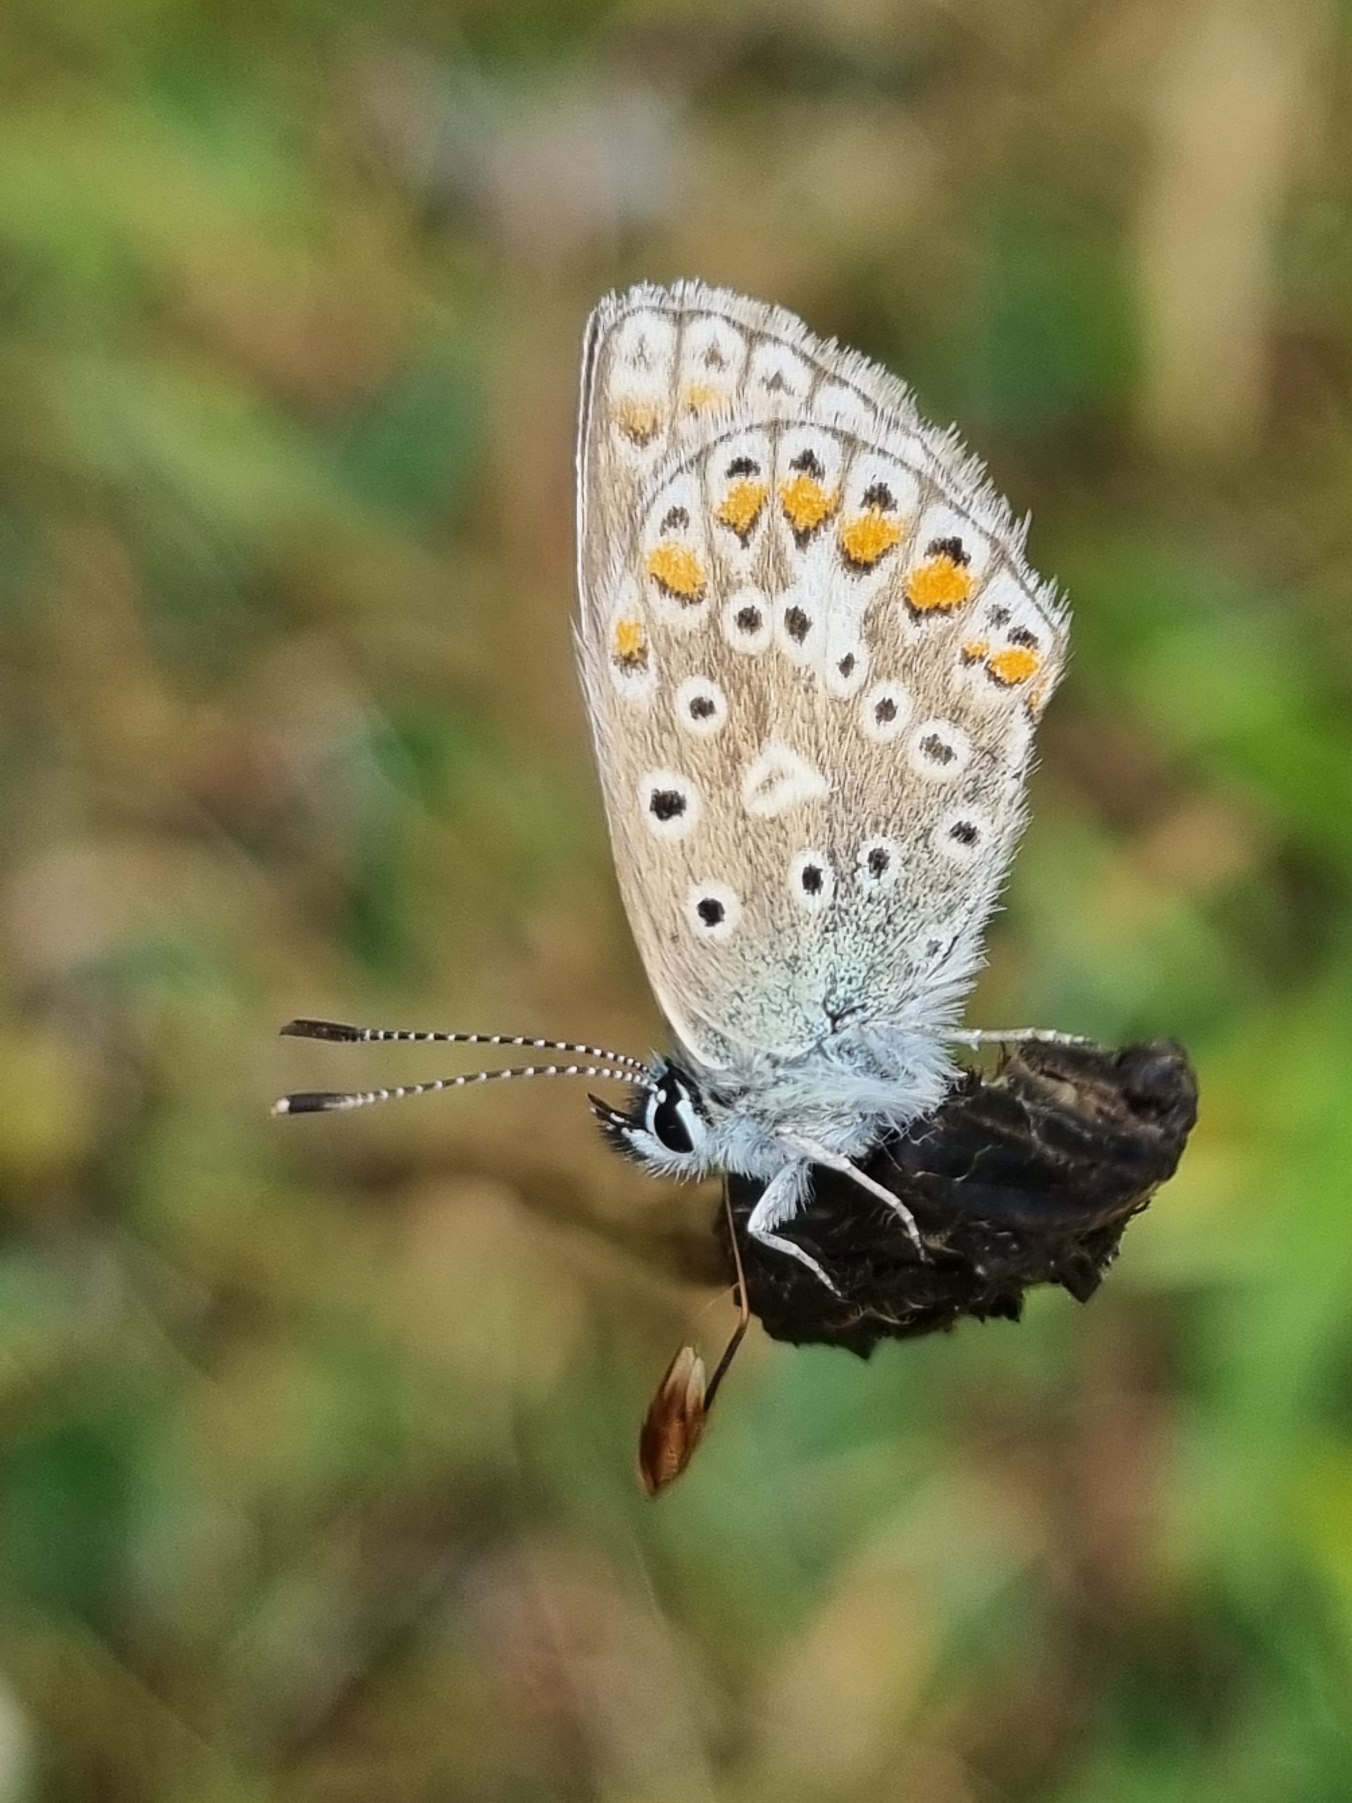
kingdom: Animalia
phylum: Arthropoda
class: Insecta
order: Lepidoptera
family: Lycaenidae
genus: Polyommatus
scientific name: Polyommatus icarus
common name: Almindelig blåfugl
